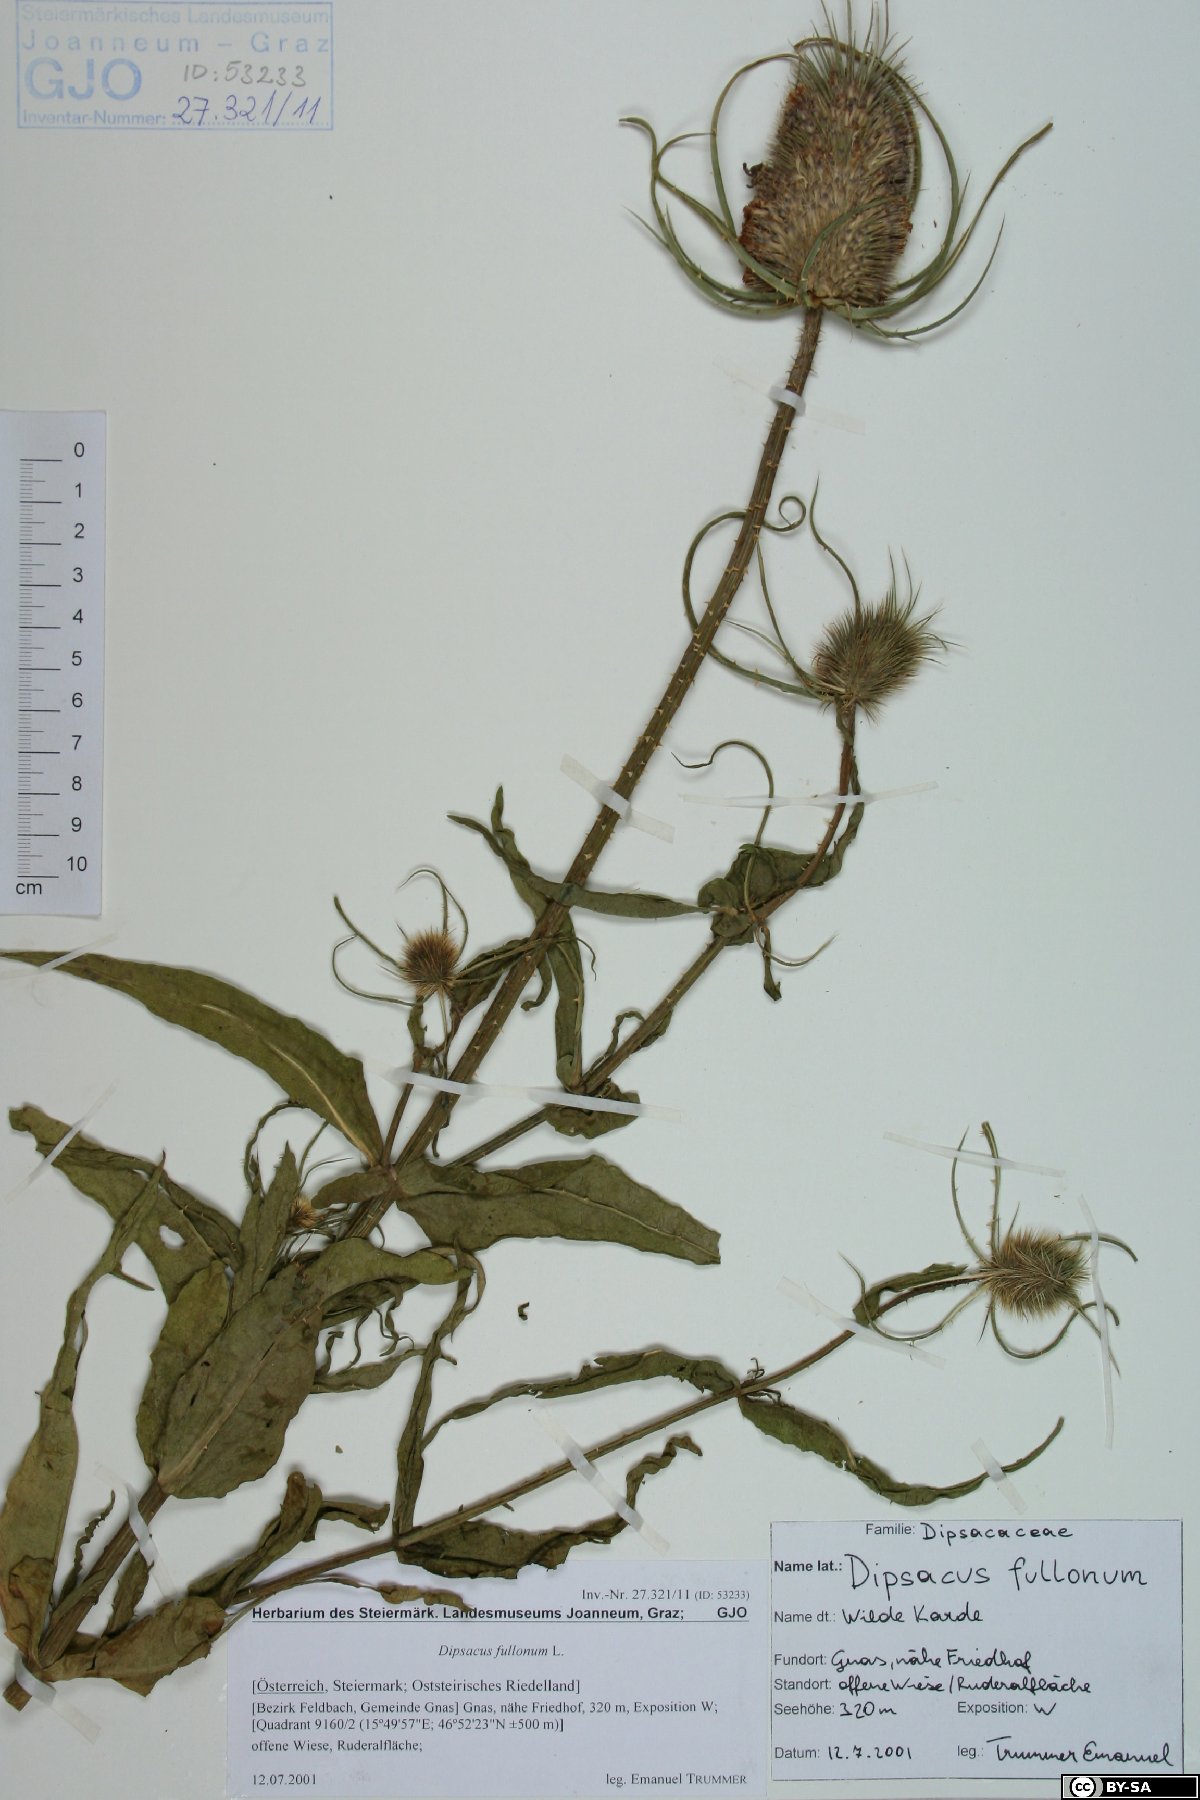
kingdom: Plantae
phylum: Tracheophyta
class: Magnoliopsida
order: Dipsacales
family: Caprifoliaceae
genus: Dipsacus
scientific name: Dipsacus fullonum
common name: Teasel
